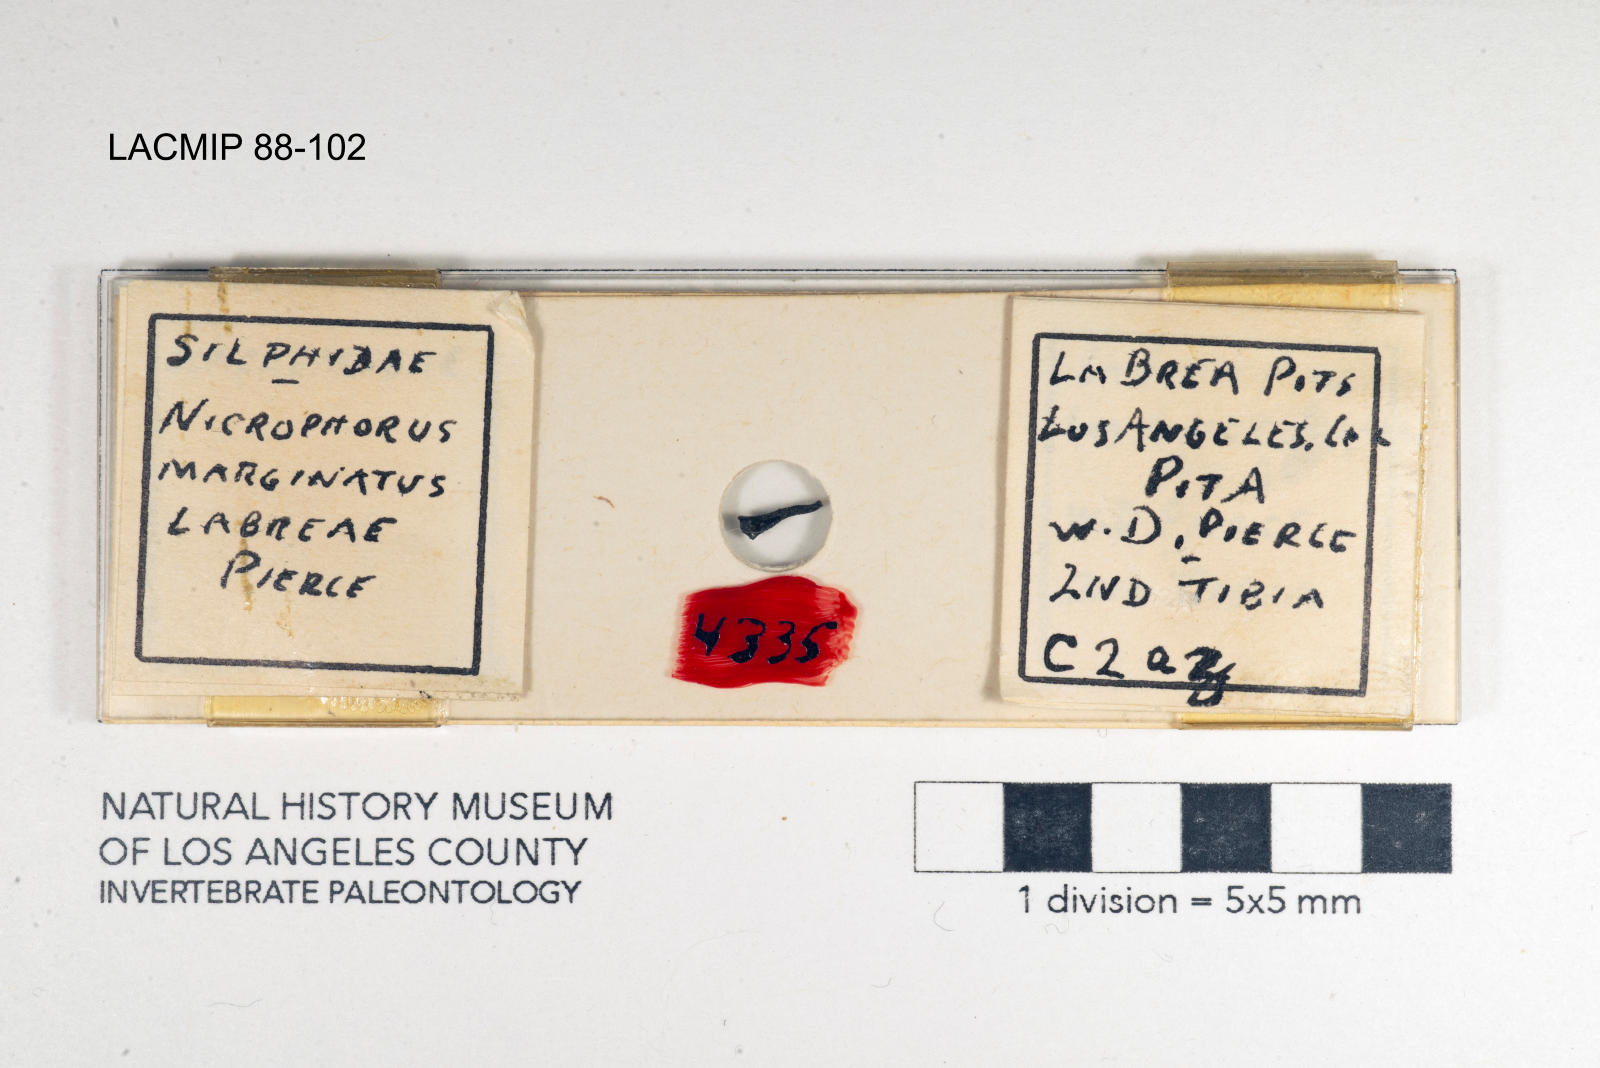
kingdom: Animalia
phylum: Arthropoda
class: Insecta
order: Coleoptera
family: Staphylinidae
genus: Nicrophorus
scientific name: Nicrophorus marginatus
